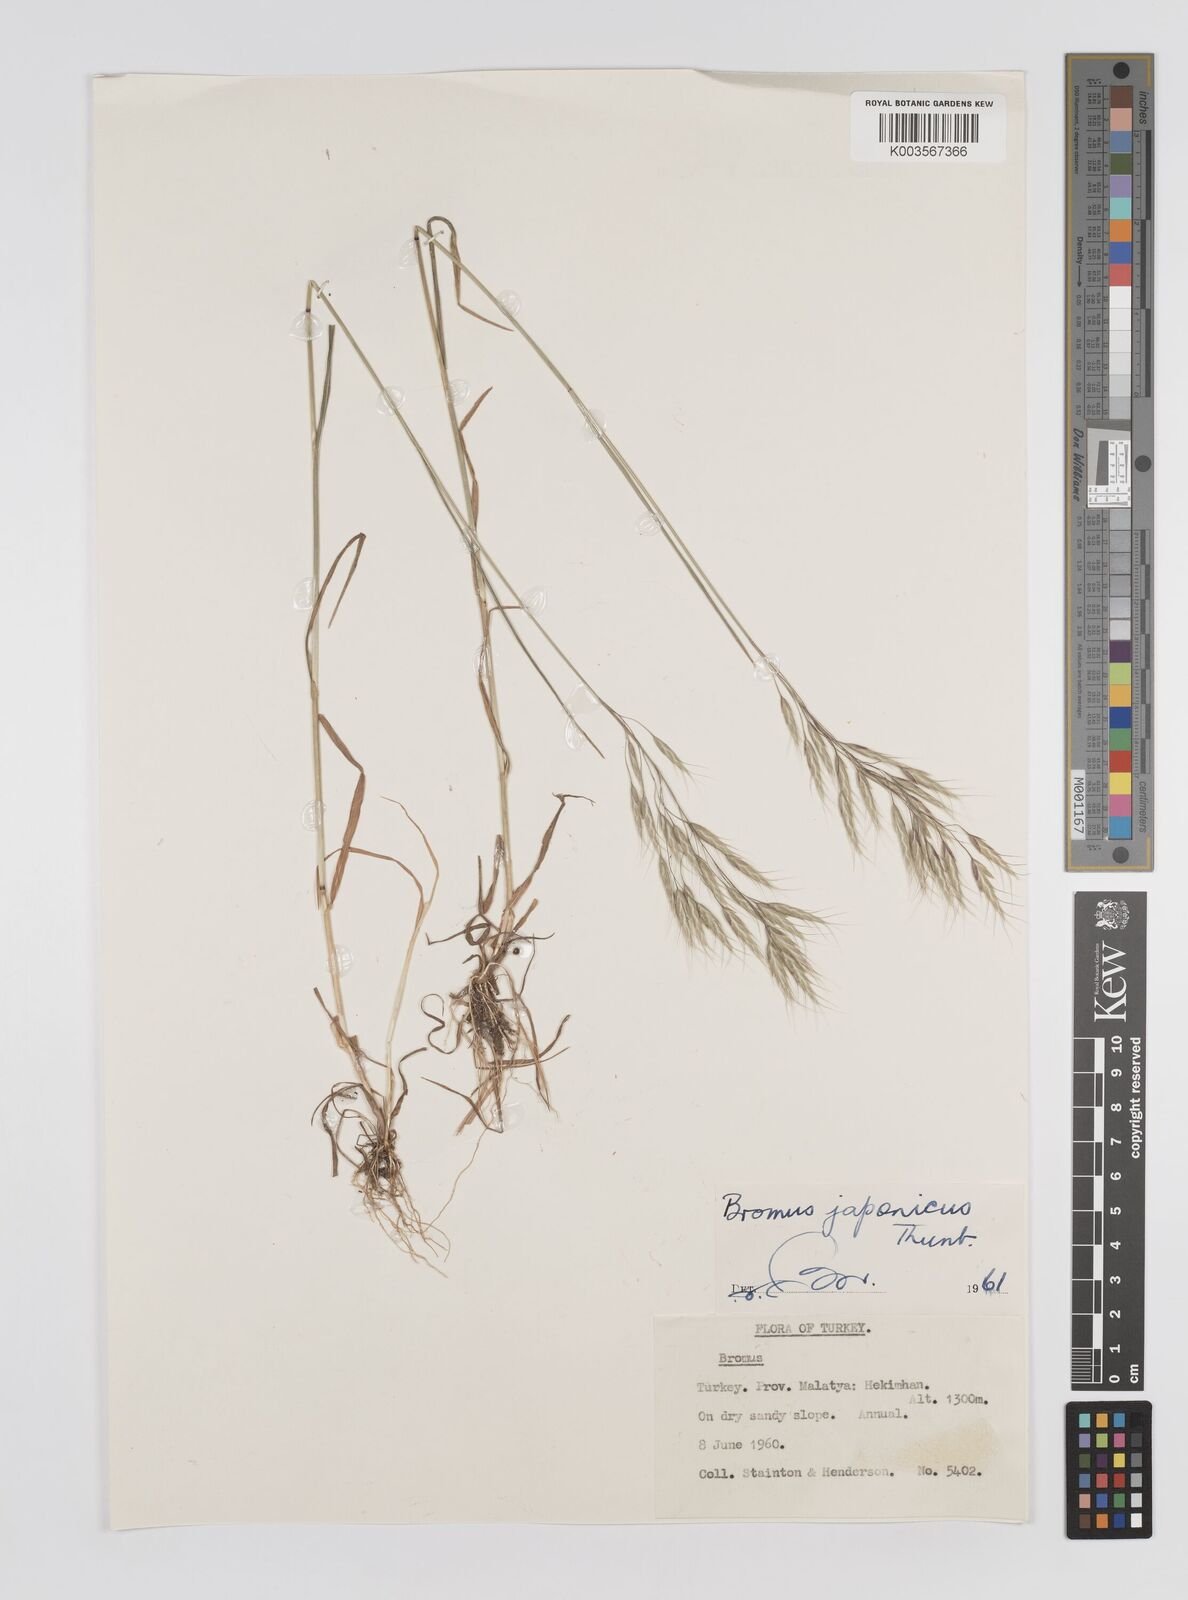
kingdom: Plantae
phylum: Tracheophyta
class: Liliopsida
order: Poales
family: Poaceae
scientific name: Poaceae
